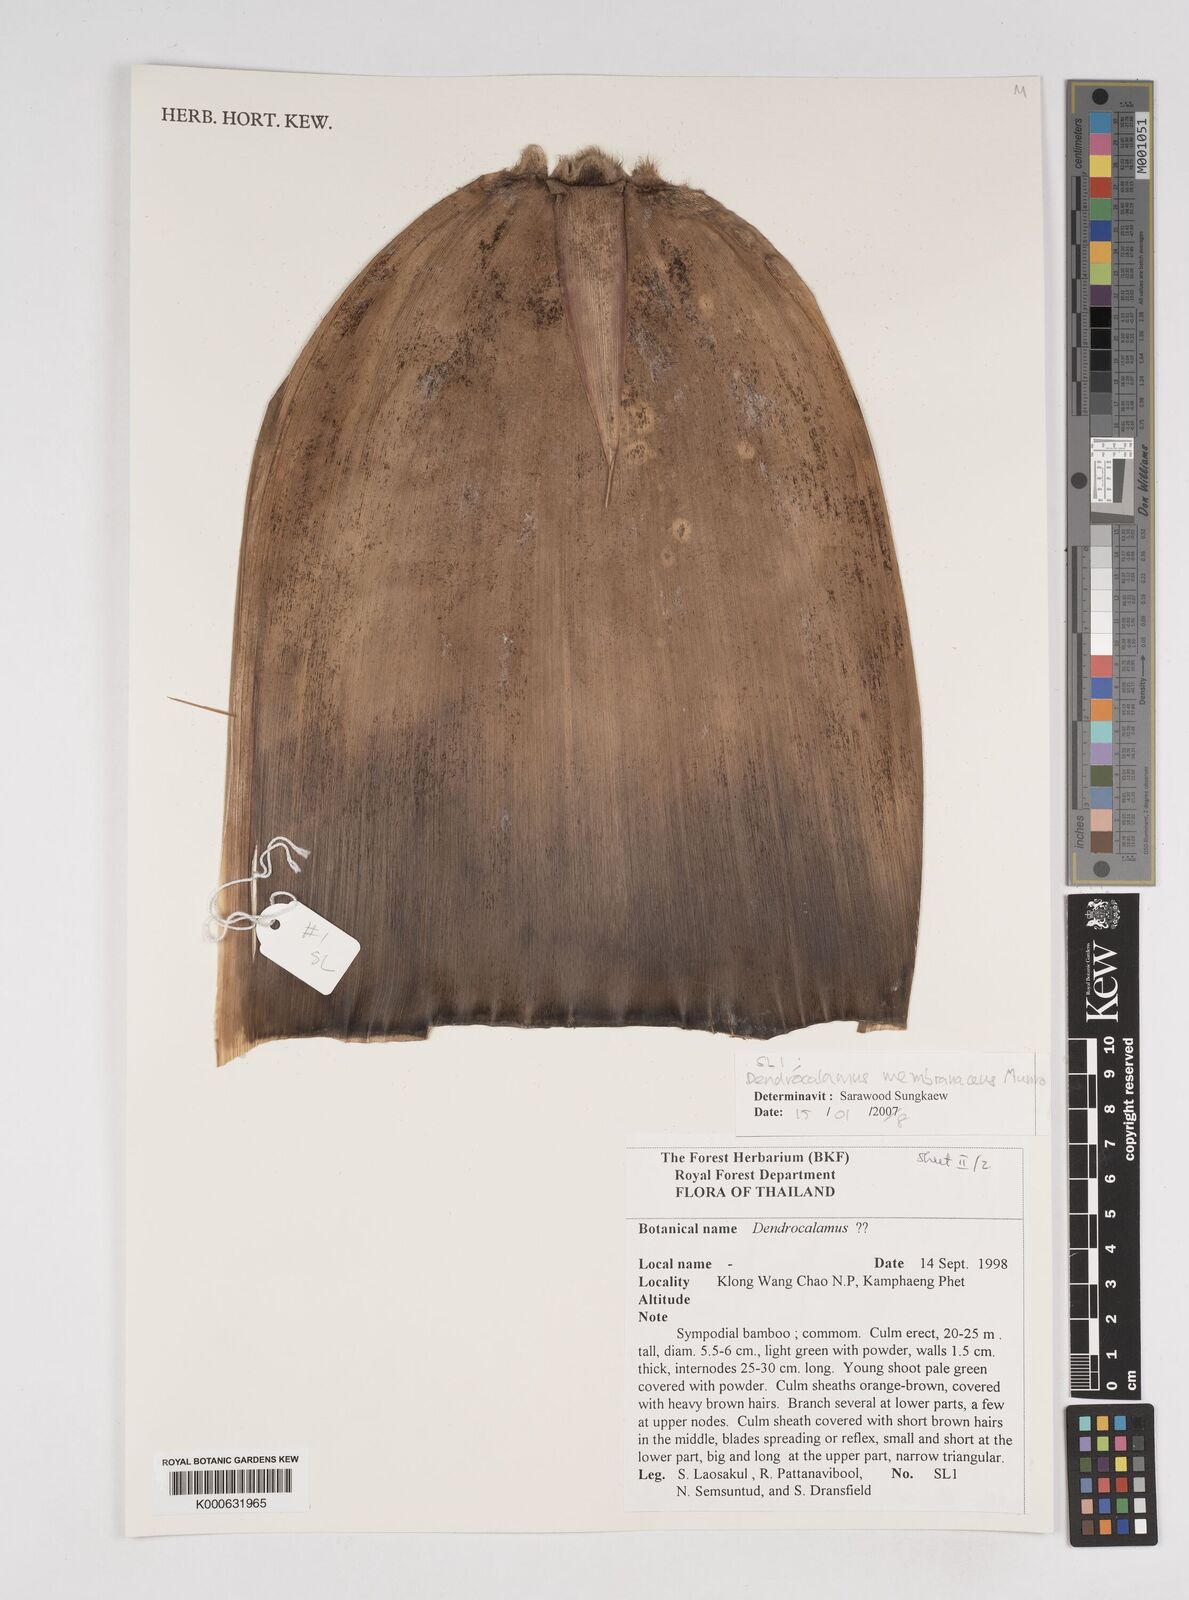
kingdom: Plantae
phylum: Tracheophyta
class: Liliopsida
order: Poales
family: Poaceae
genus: Dendrocalamus
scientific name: Dendrocalamus membranaceus
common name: White bamboo
